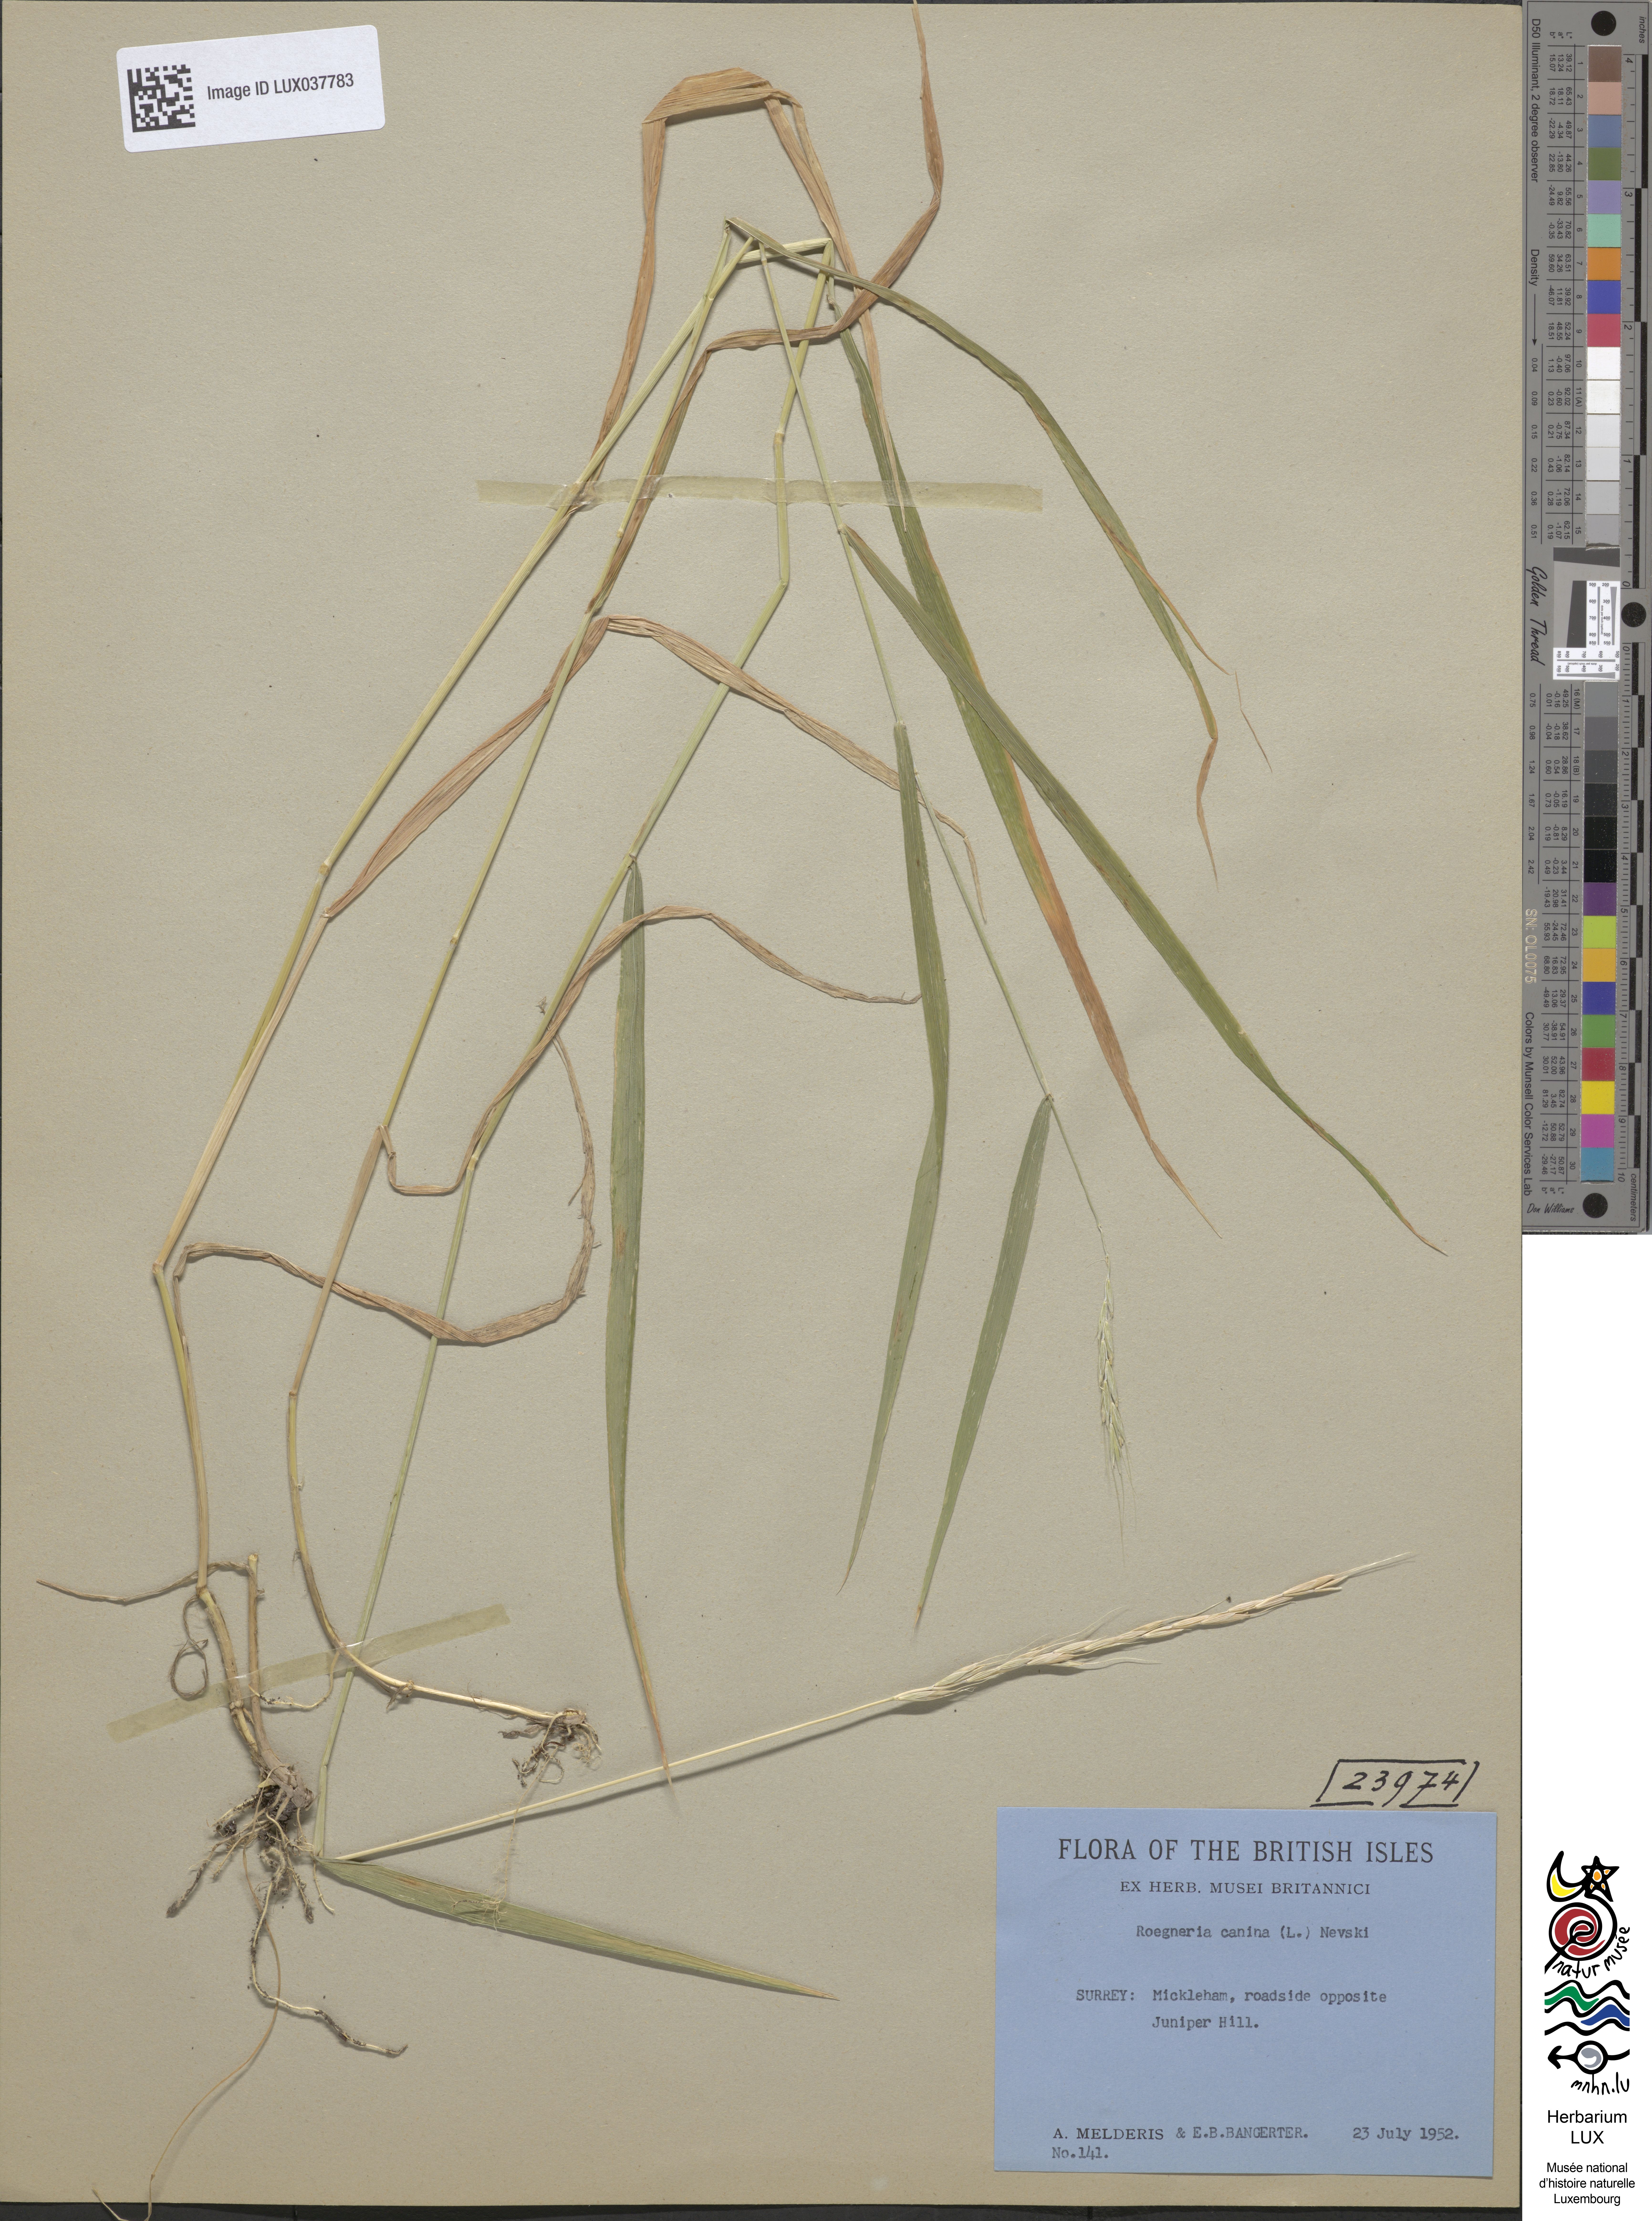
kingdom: Plantae
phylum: Tracheophyta
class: Liliopsida
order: Poales
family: Poaceae
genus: Elymus
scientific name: Elymus caninus
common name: Bearded couch
